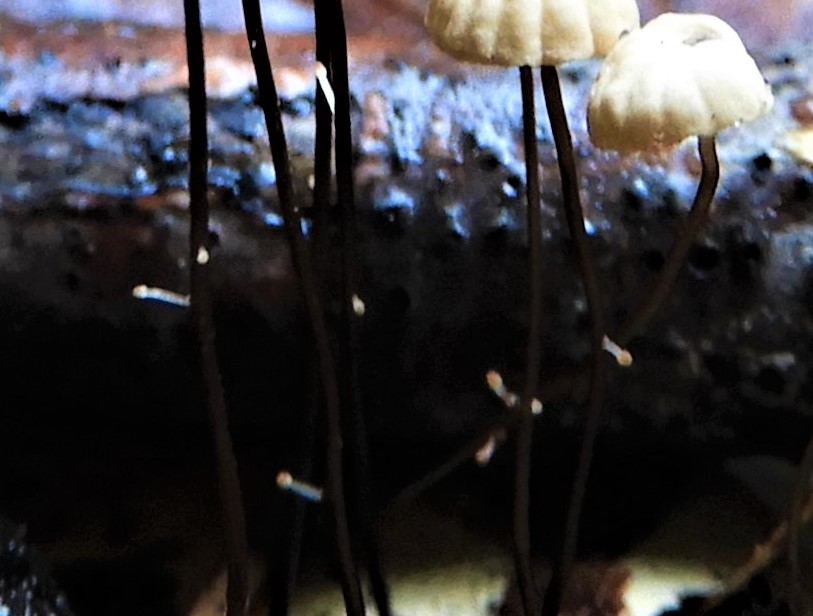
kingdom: Fungi
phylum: Basidiomycota
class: Agaricomycetes
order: Agaricales
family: Marasmiaceae
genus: Marasmius
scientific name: Marasmius bulliardii
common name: furet bruskhat
